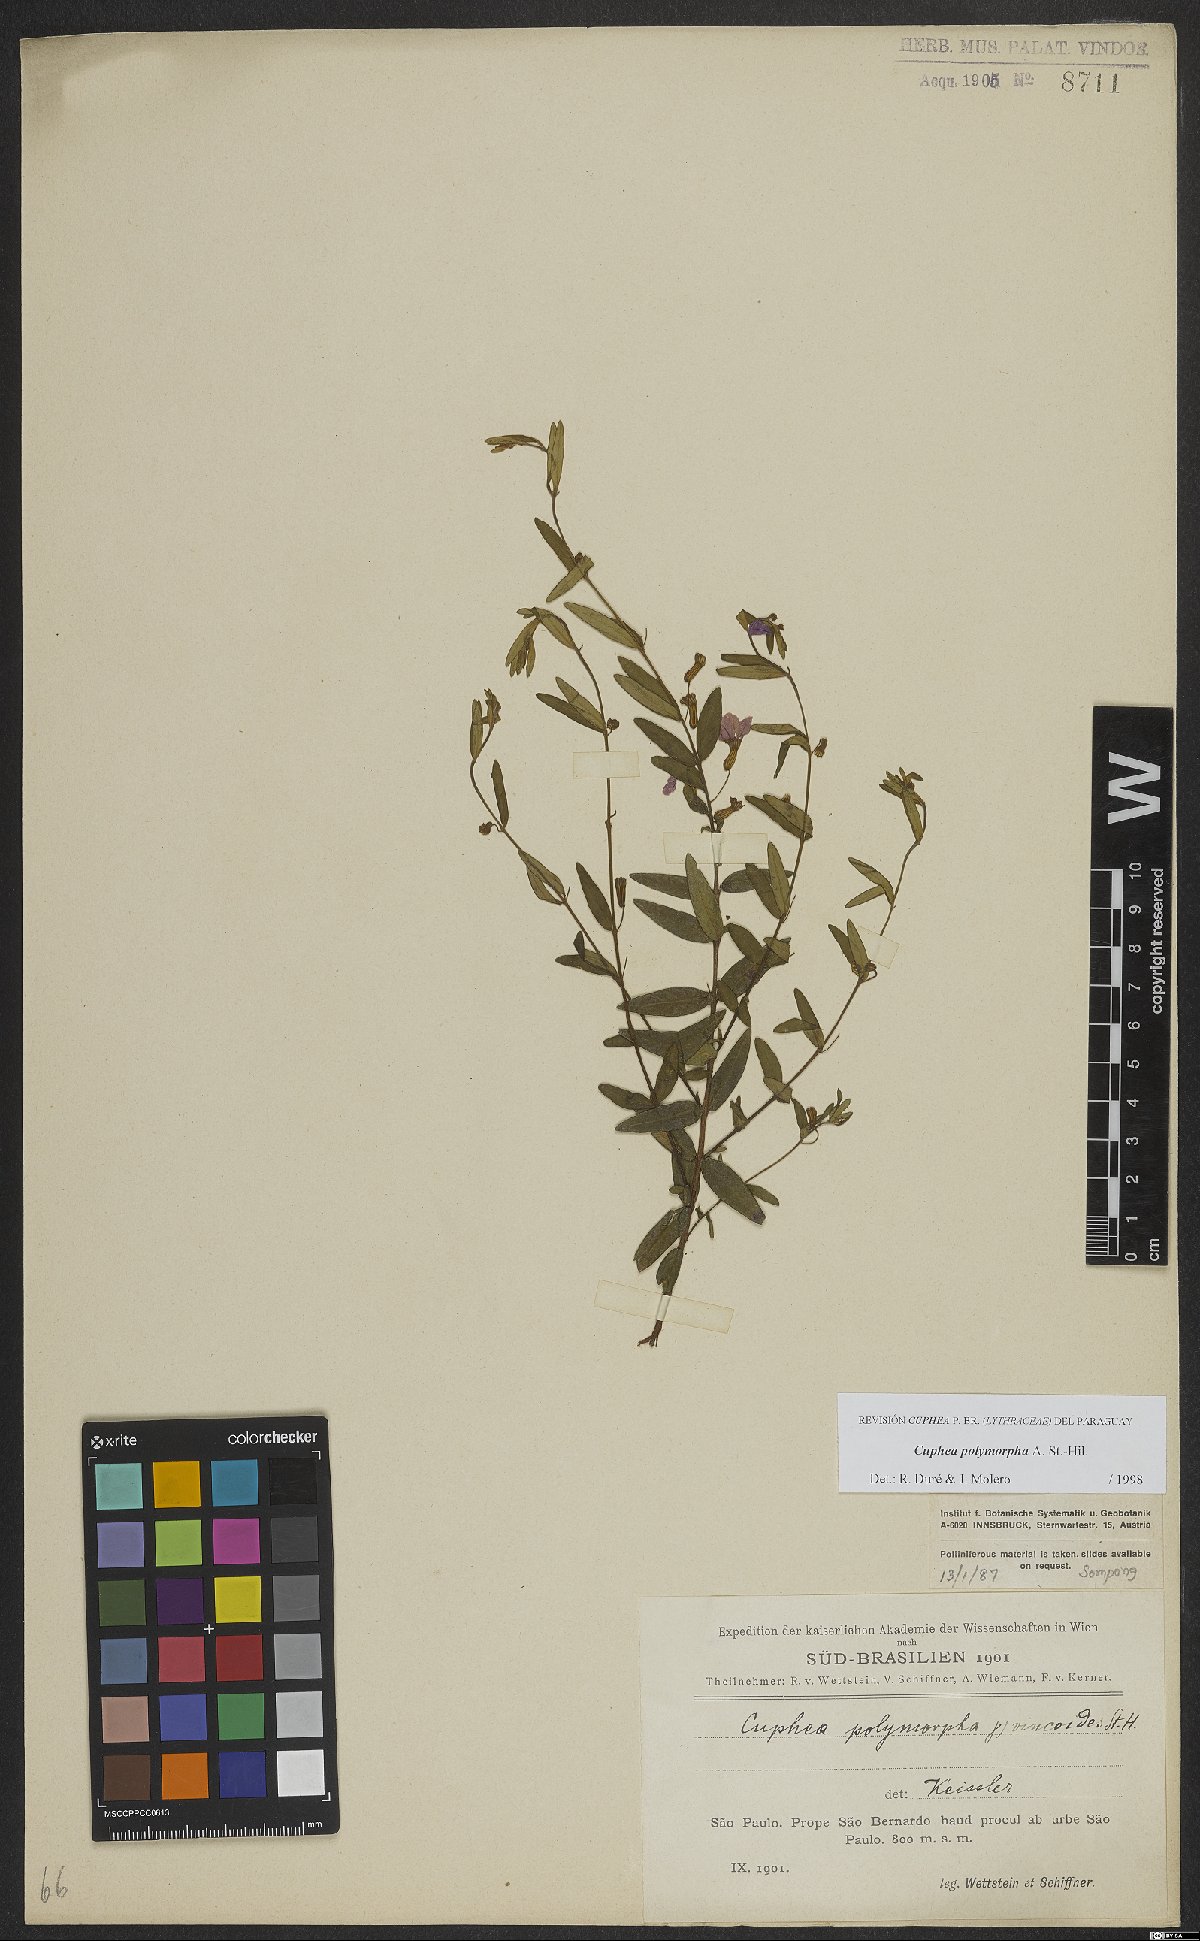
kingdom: Plantae
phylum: Tracheophyta
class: Magnoliopsida
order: Myrtales
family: Lythraceae
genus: Cuphea
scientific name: Cuphea polymorpha
